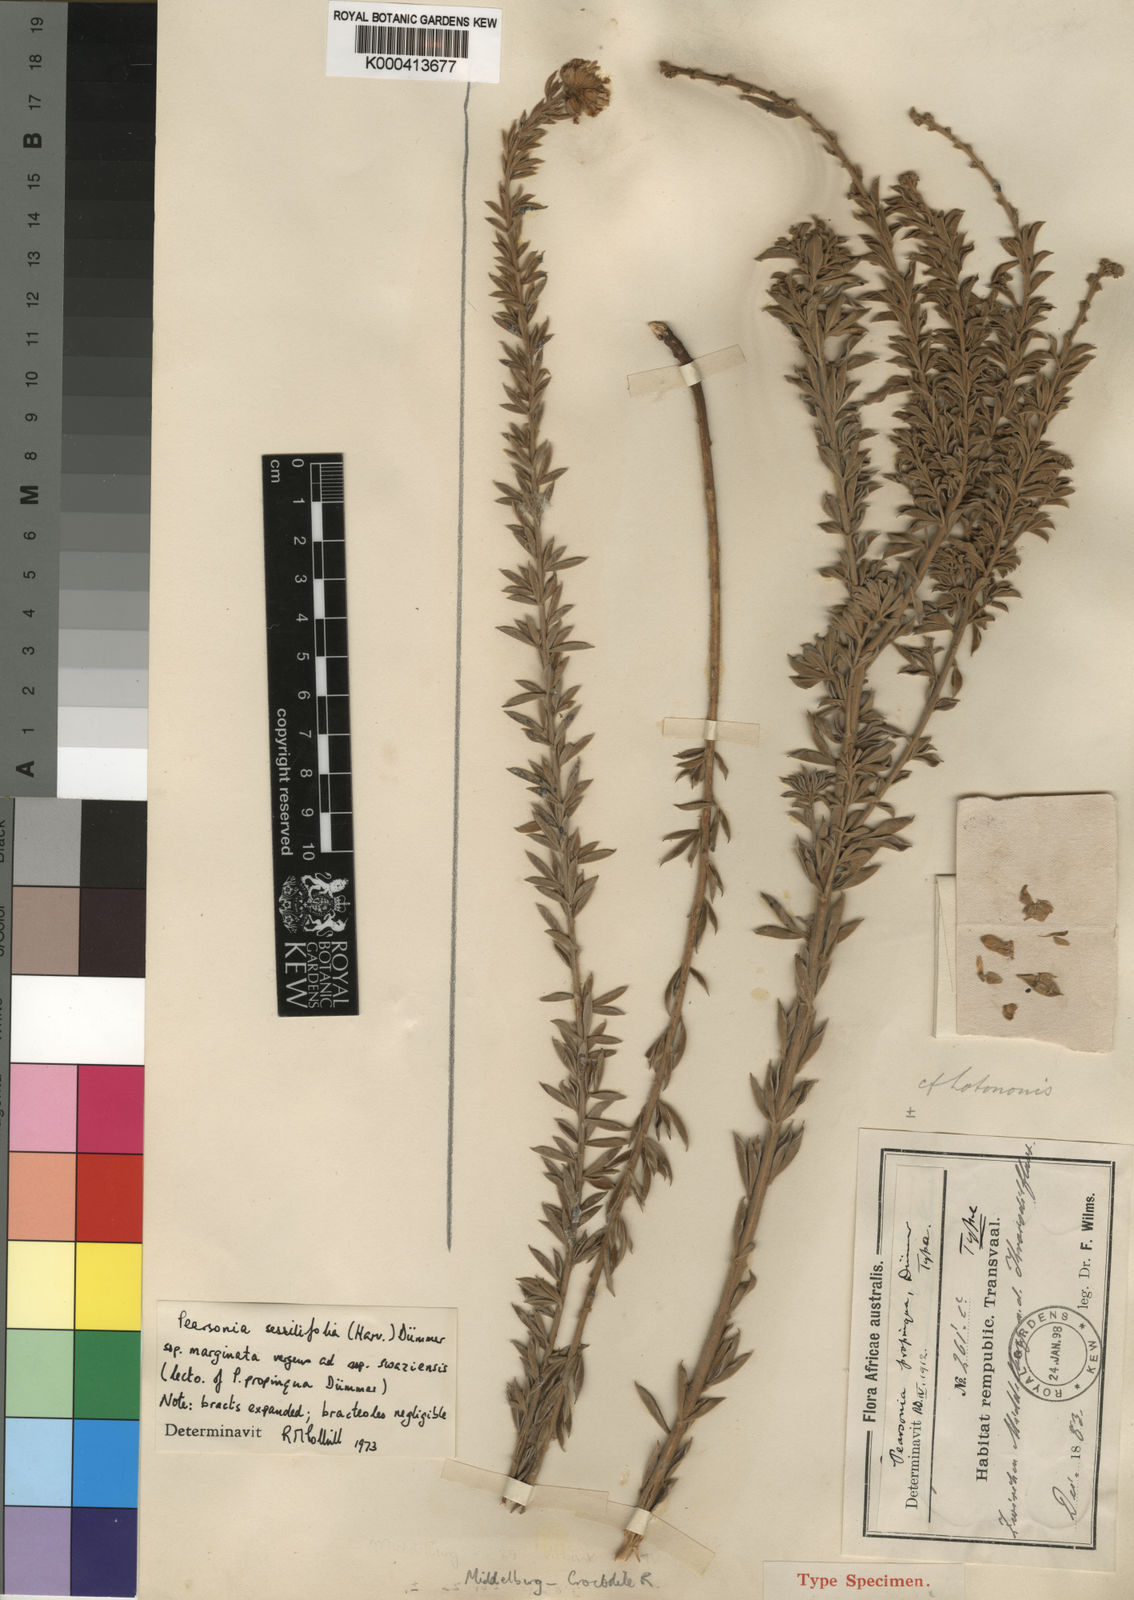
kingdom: Plantae
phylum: Tracheophyta
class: Magnoliopsida
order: Fabales
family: Fabaceae
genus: Pearsonia
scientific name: Pearsonia sessilifolia
